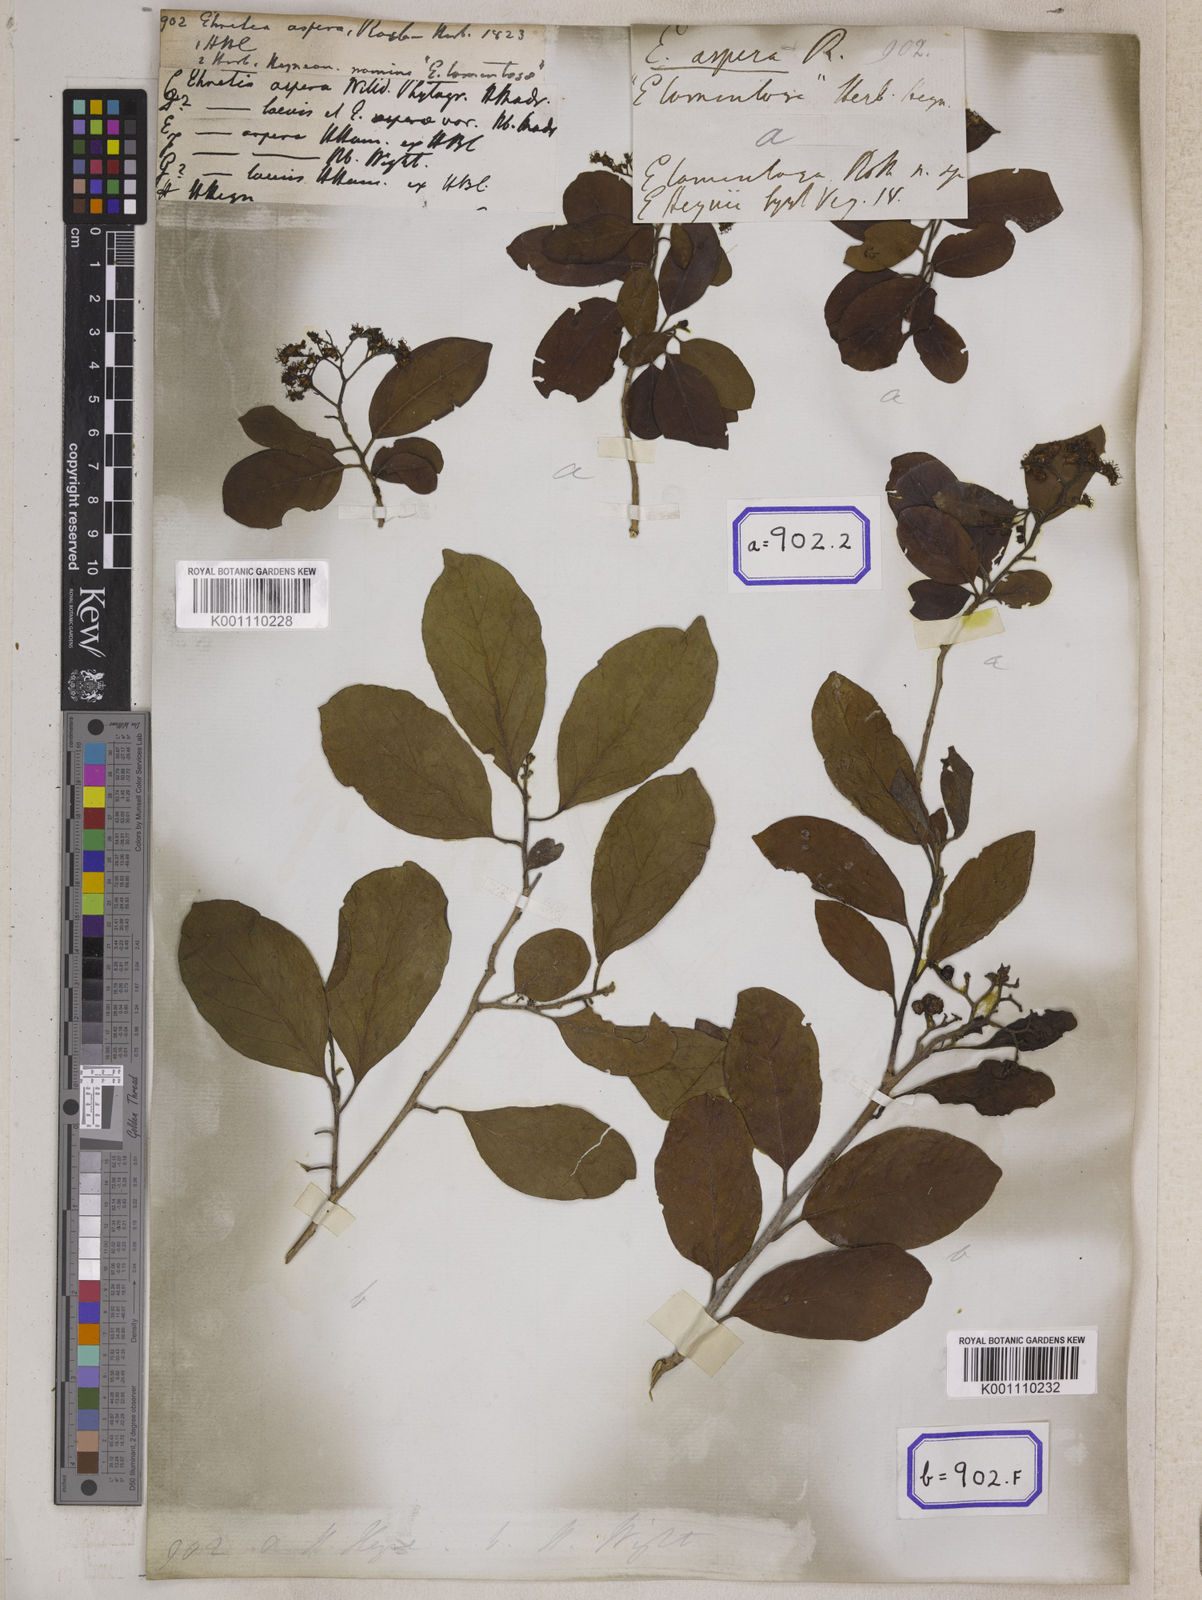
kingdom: Plantae
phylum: Tracheophyta
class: Magnoliopsida
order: Boraginales
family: Ehretiaceae
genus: Ehretia
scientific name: Ehretia aspera
